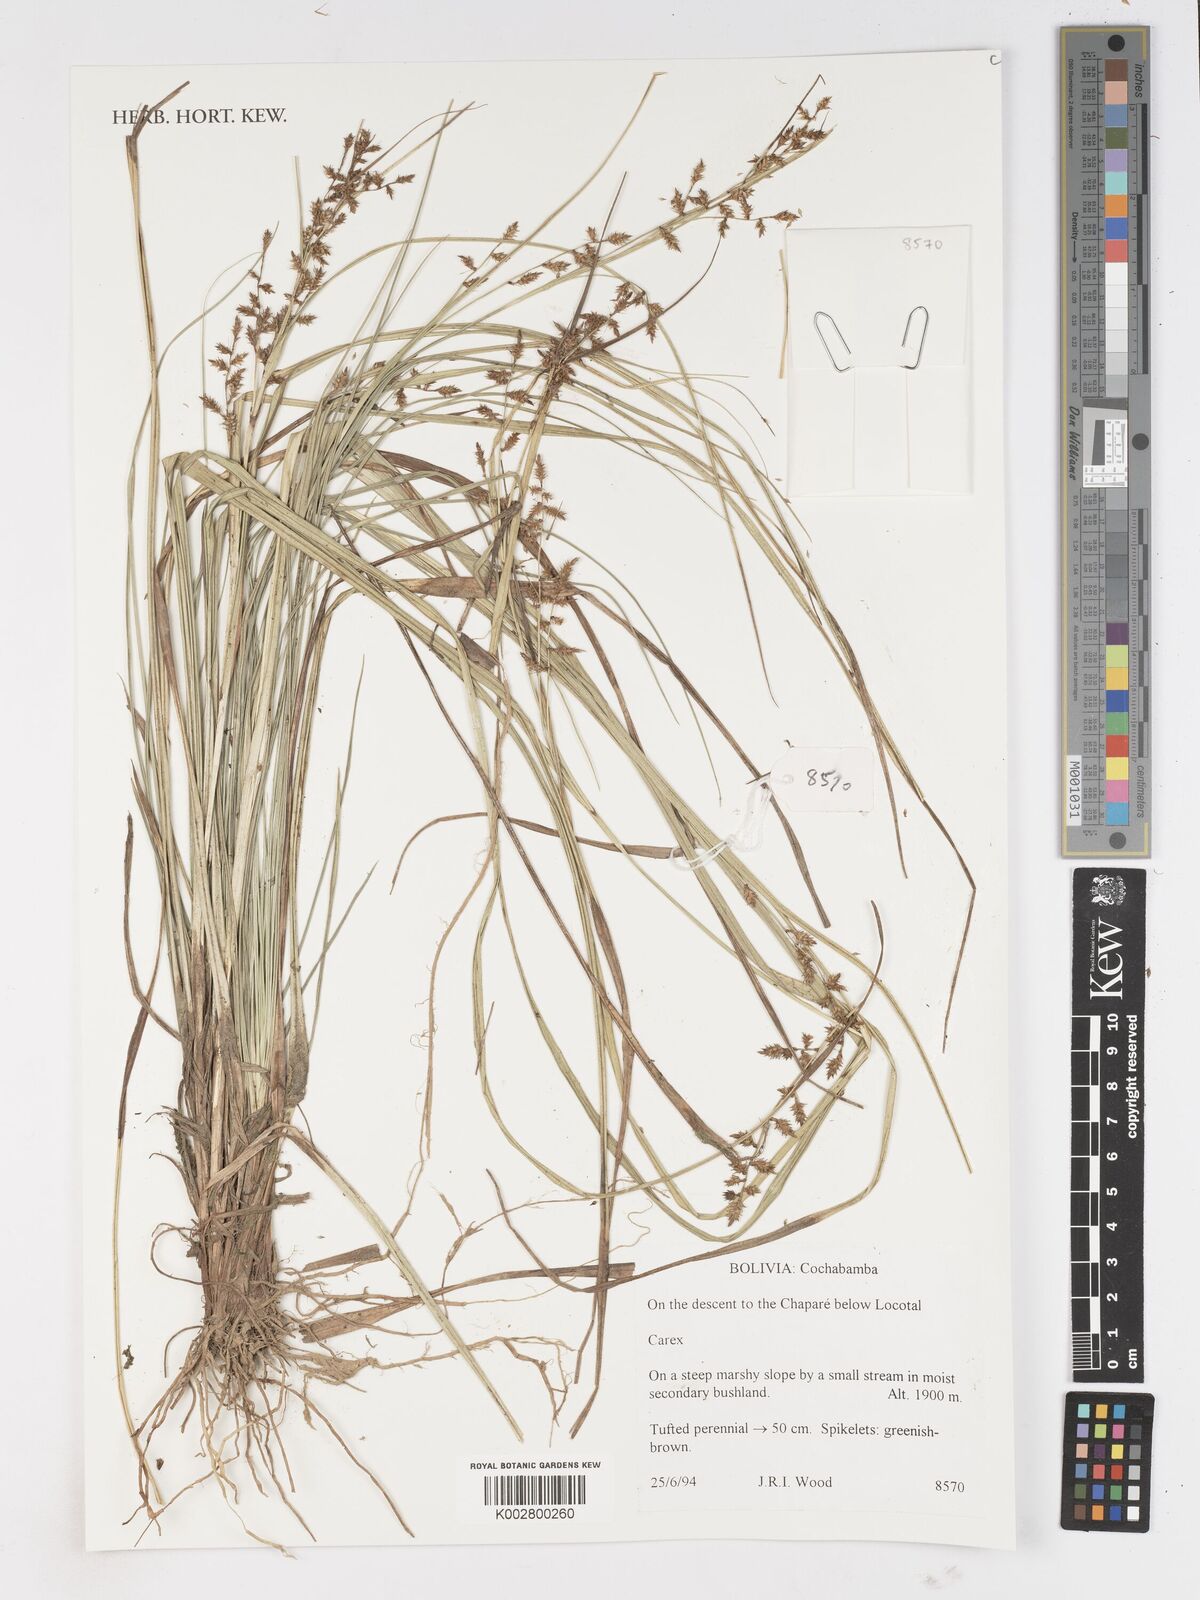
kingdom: Plantae
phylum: Tracheophyta
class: Liliopsida
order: Poales
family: Cyperaceae
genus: Carex
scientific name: Carex
